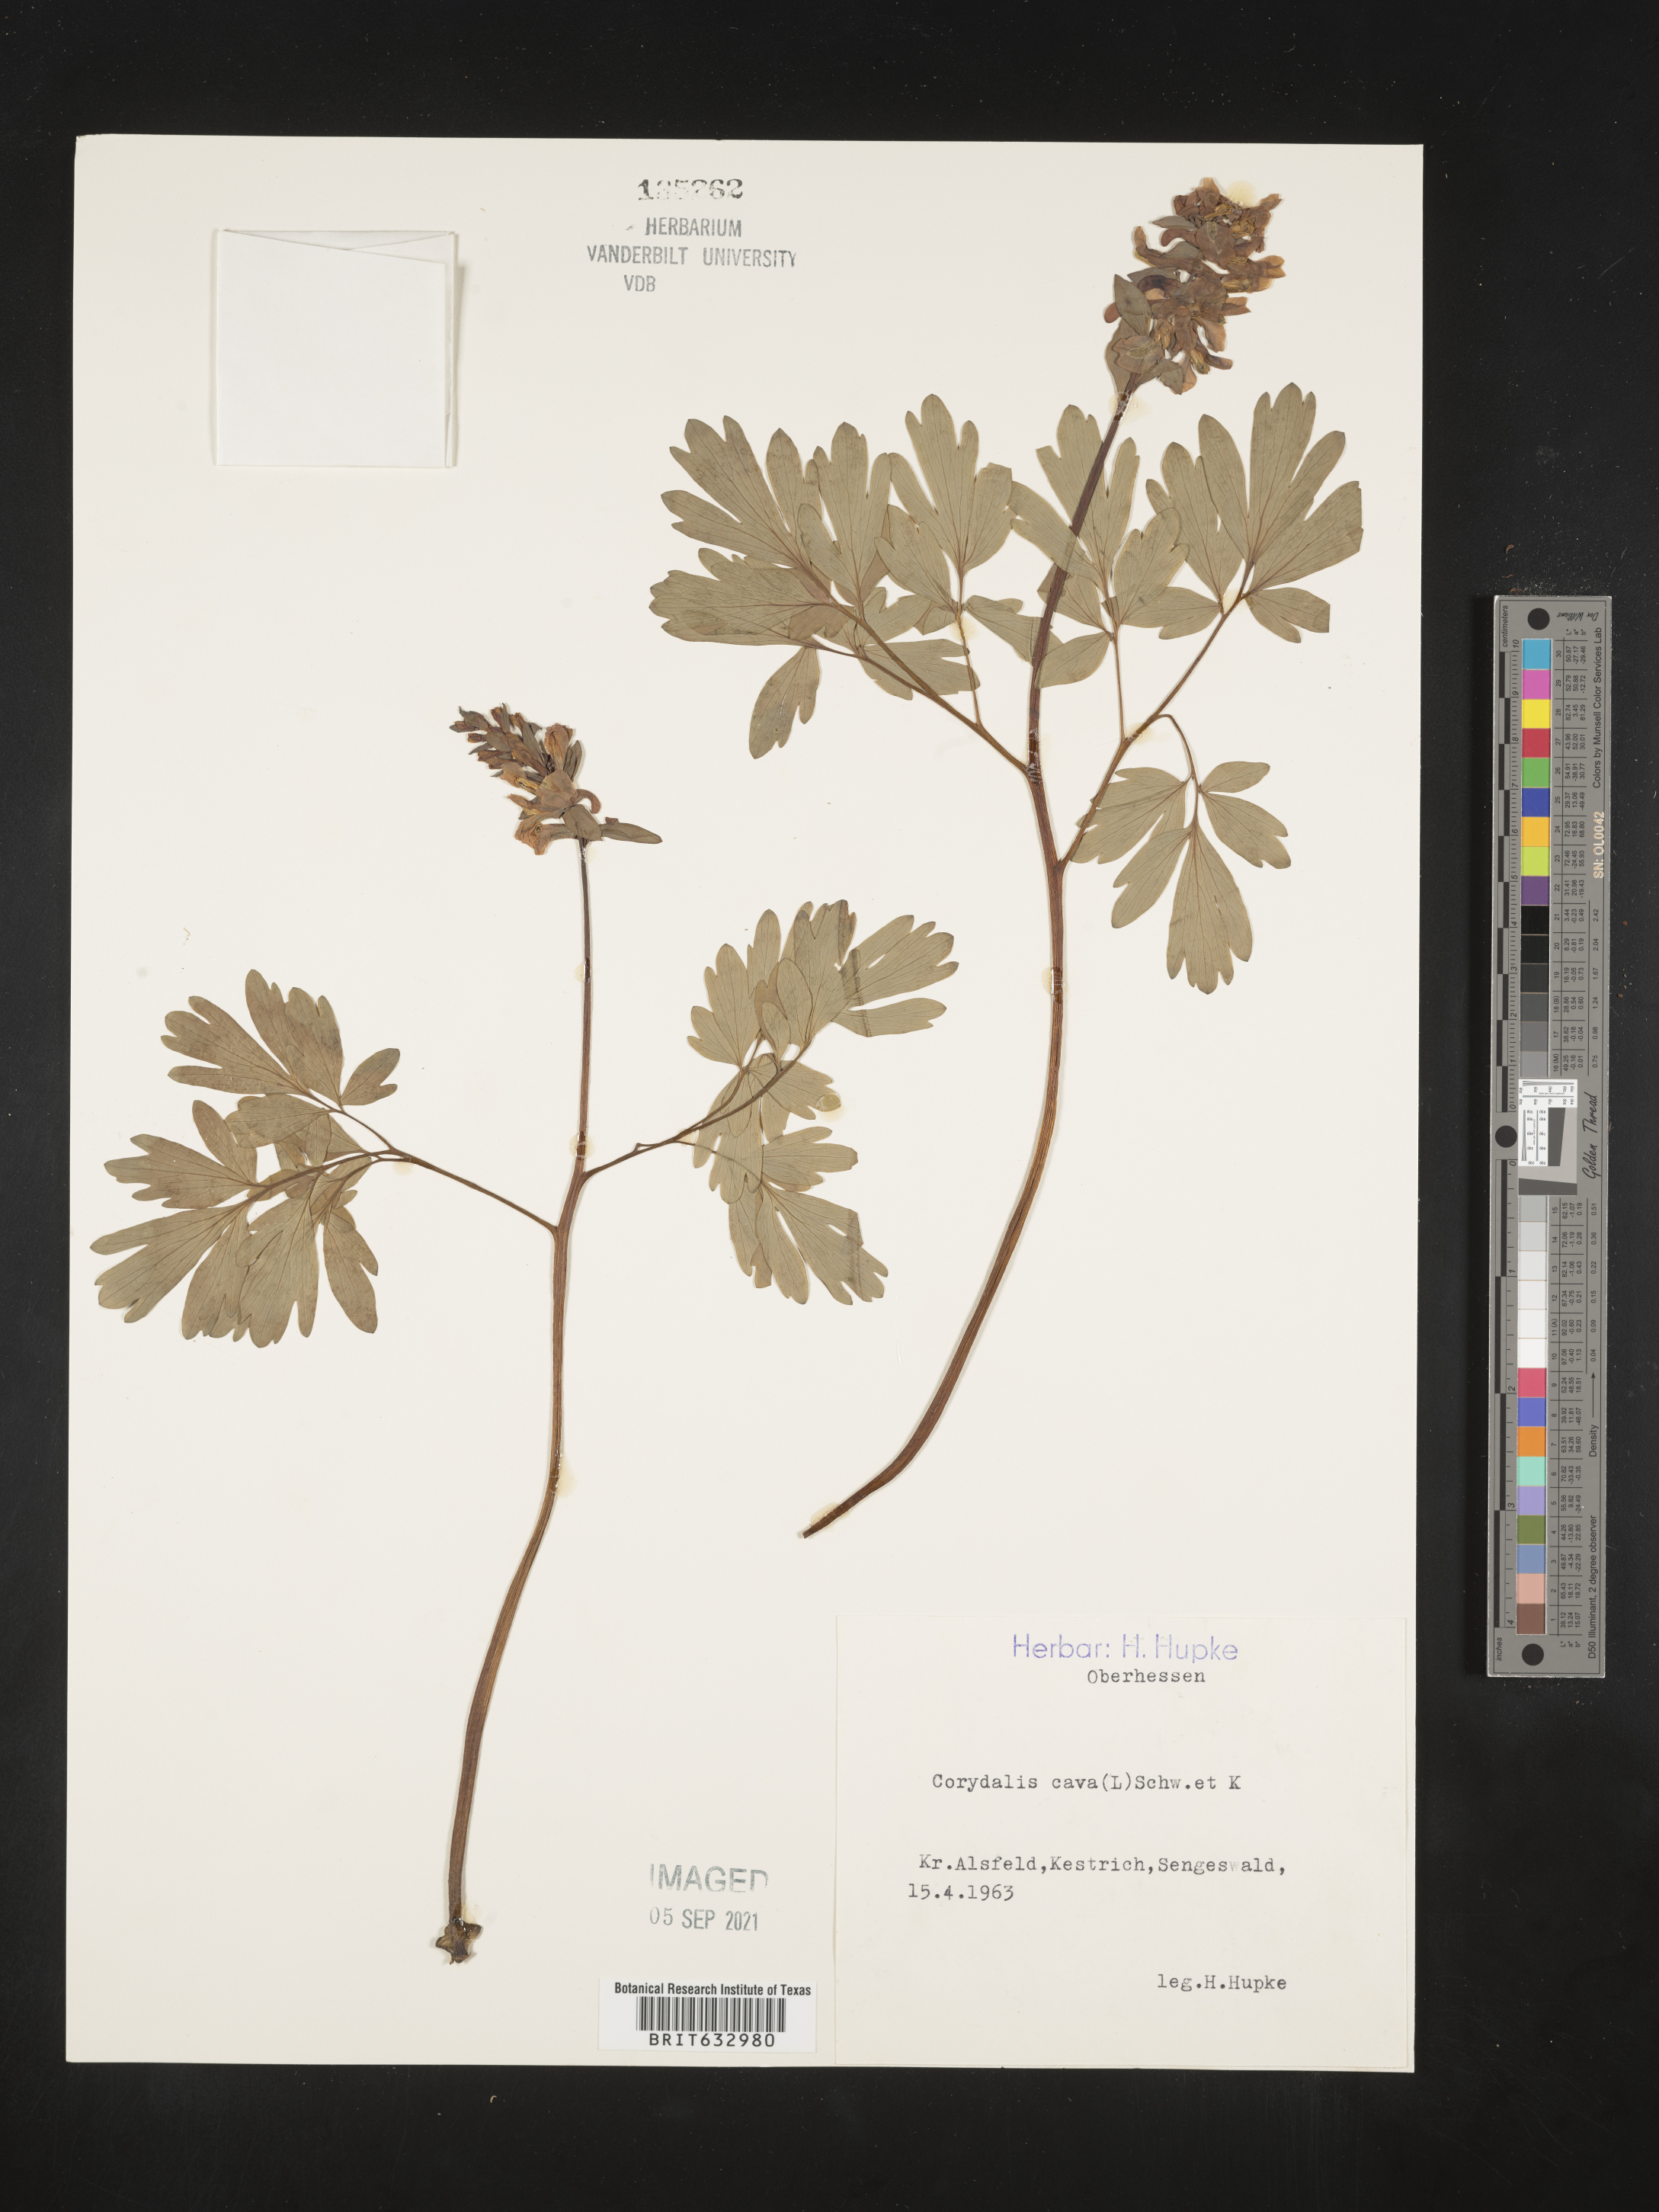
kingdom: Plantae
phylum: Tracheophyta
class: Magnoliopsida
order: Ranunculales
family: Papaveraceae
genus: Corydalis
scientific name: Corydalis
